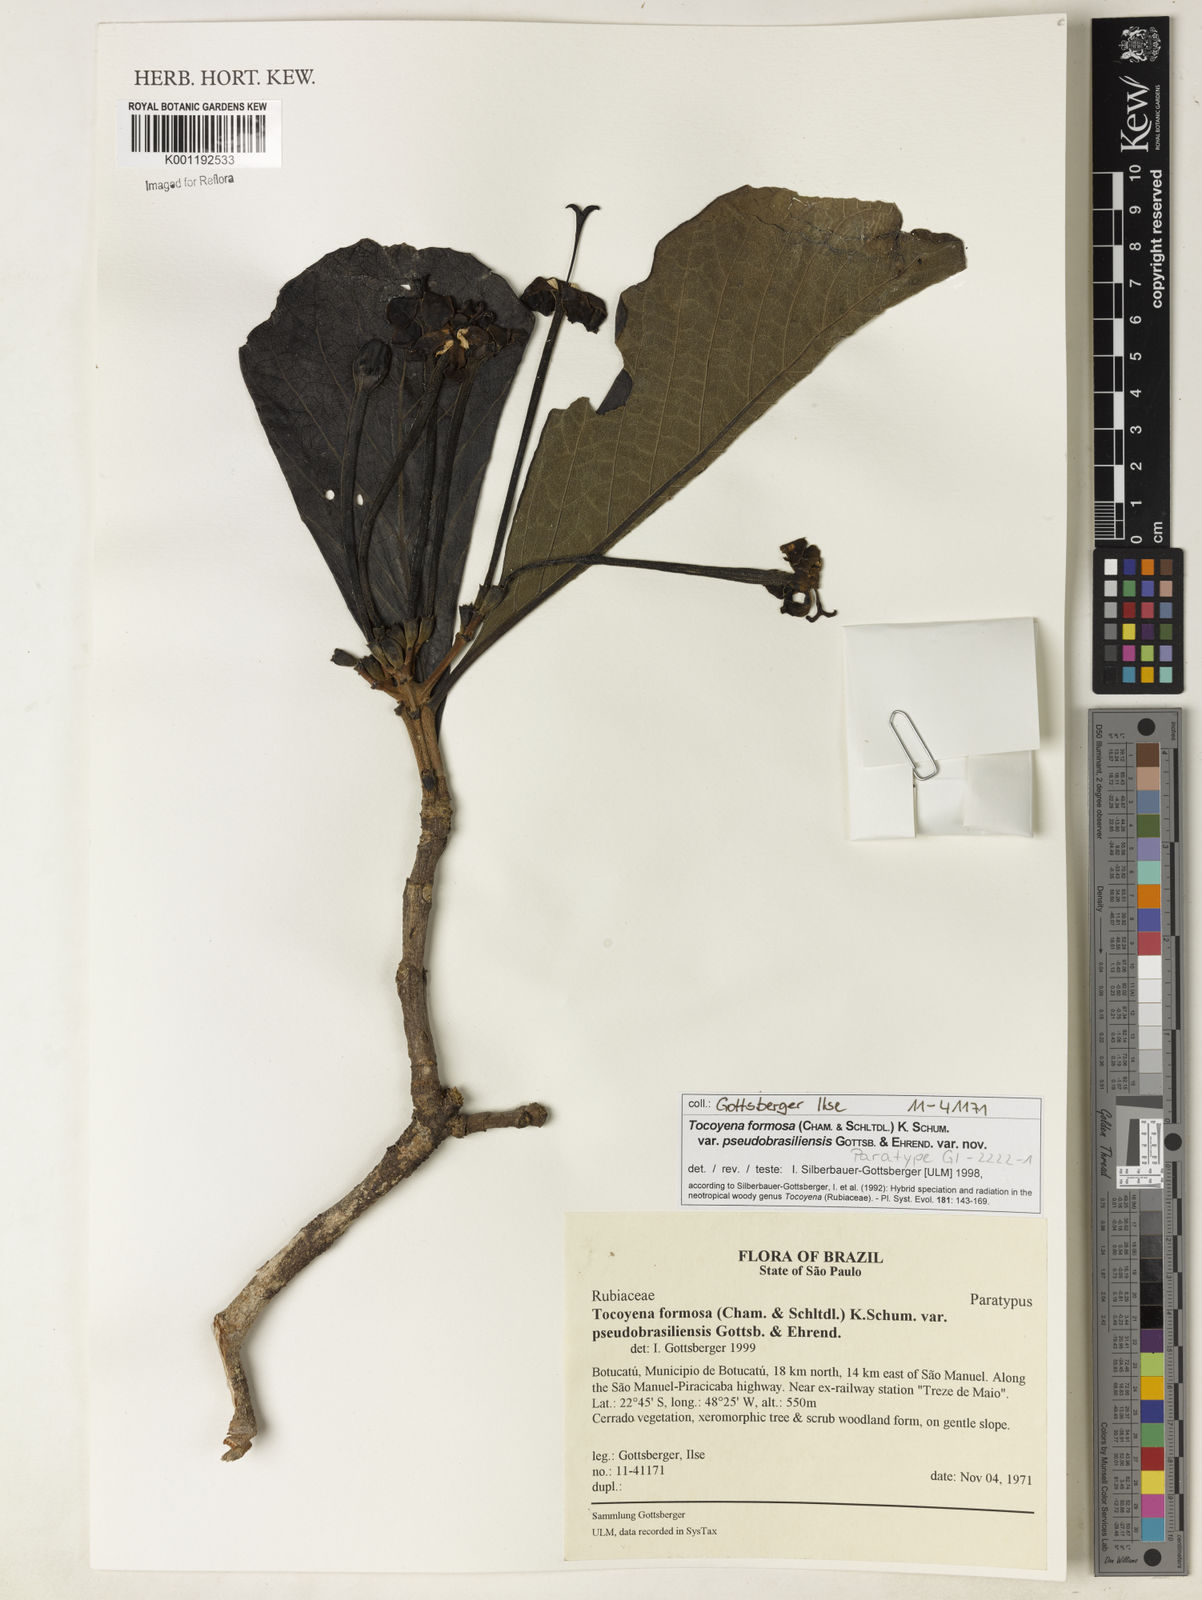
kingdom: Plantae
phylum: Tracheophyta
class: Magnoliopsida
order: Gentianales
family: Rubiaceae
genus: Tocoyena
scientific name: Tocoyena formosa
